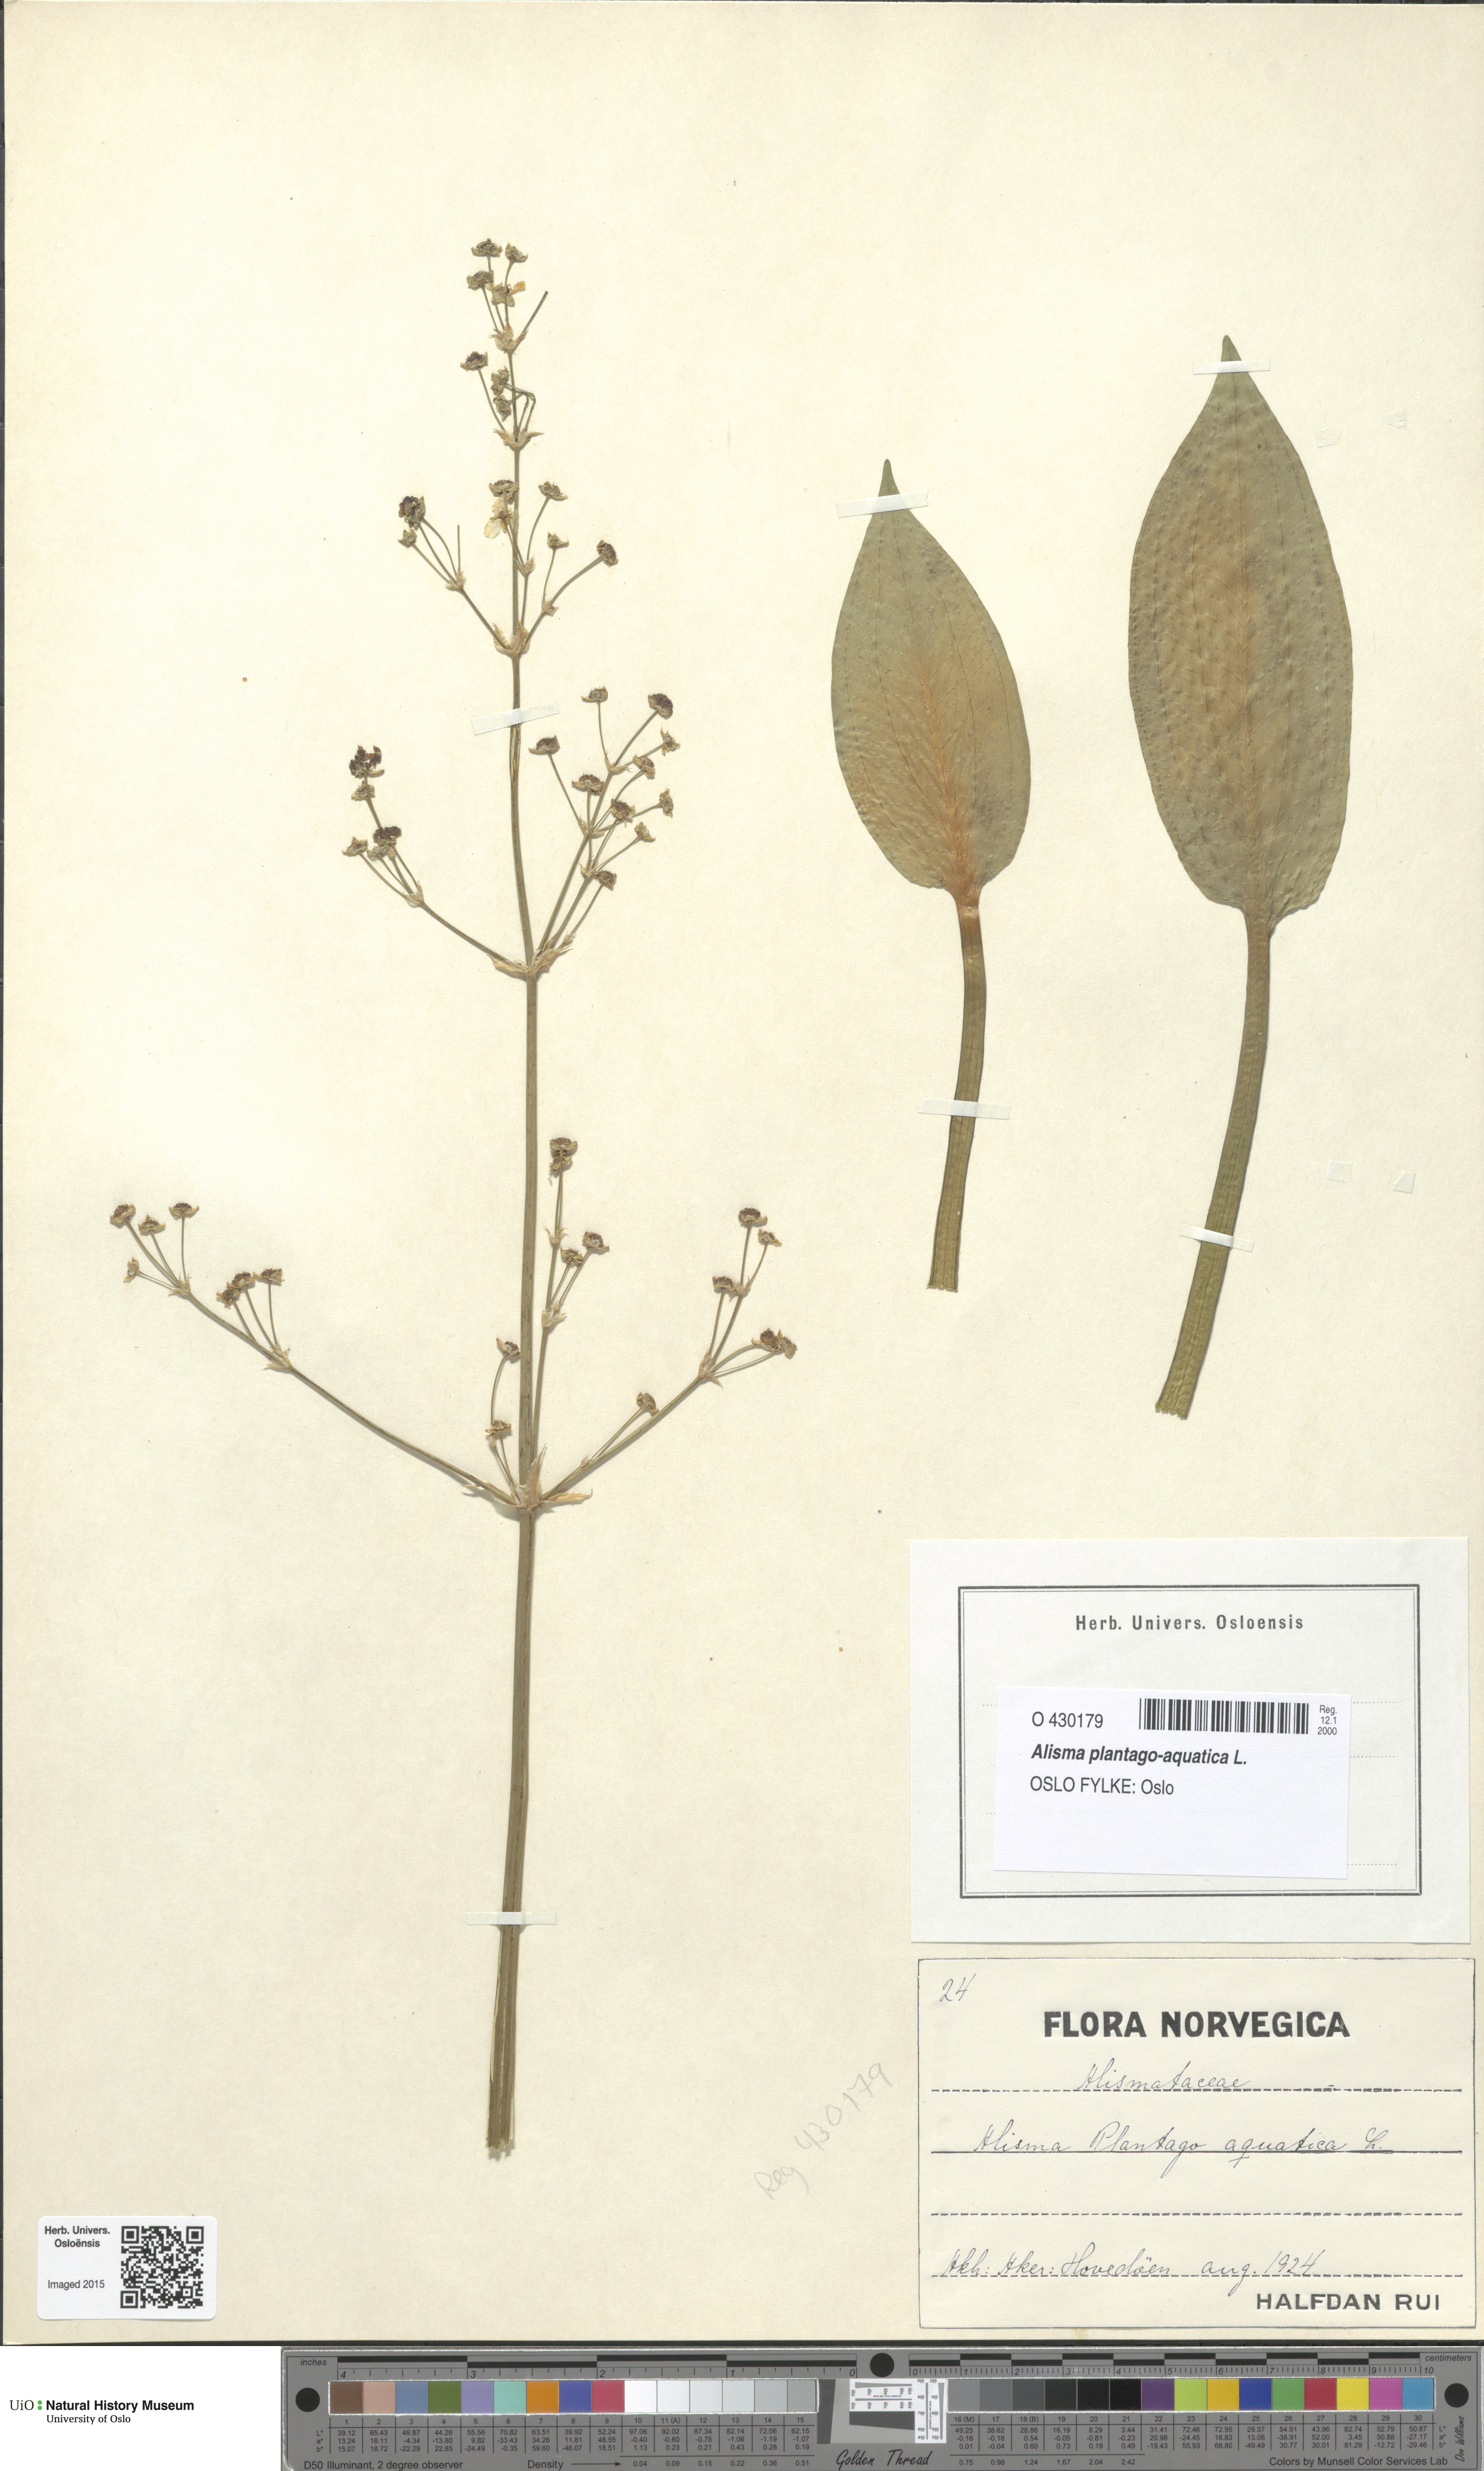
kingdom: Plantae
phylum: Tracheophyta
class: Liliopsida
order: Alismatales
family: Alismataceae
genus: Alisma
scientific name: Alisma plantago-aquatica
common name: Water-plantain
